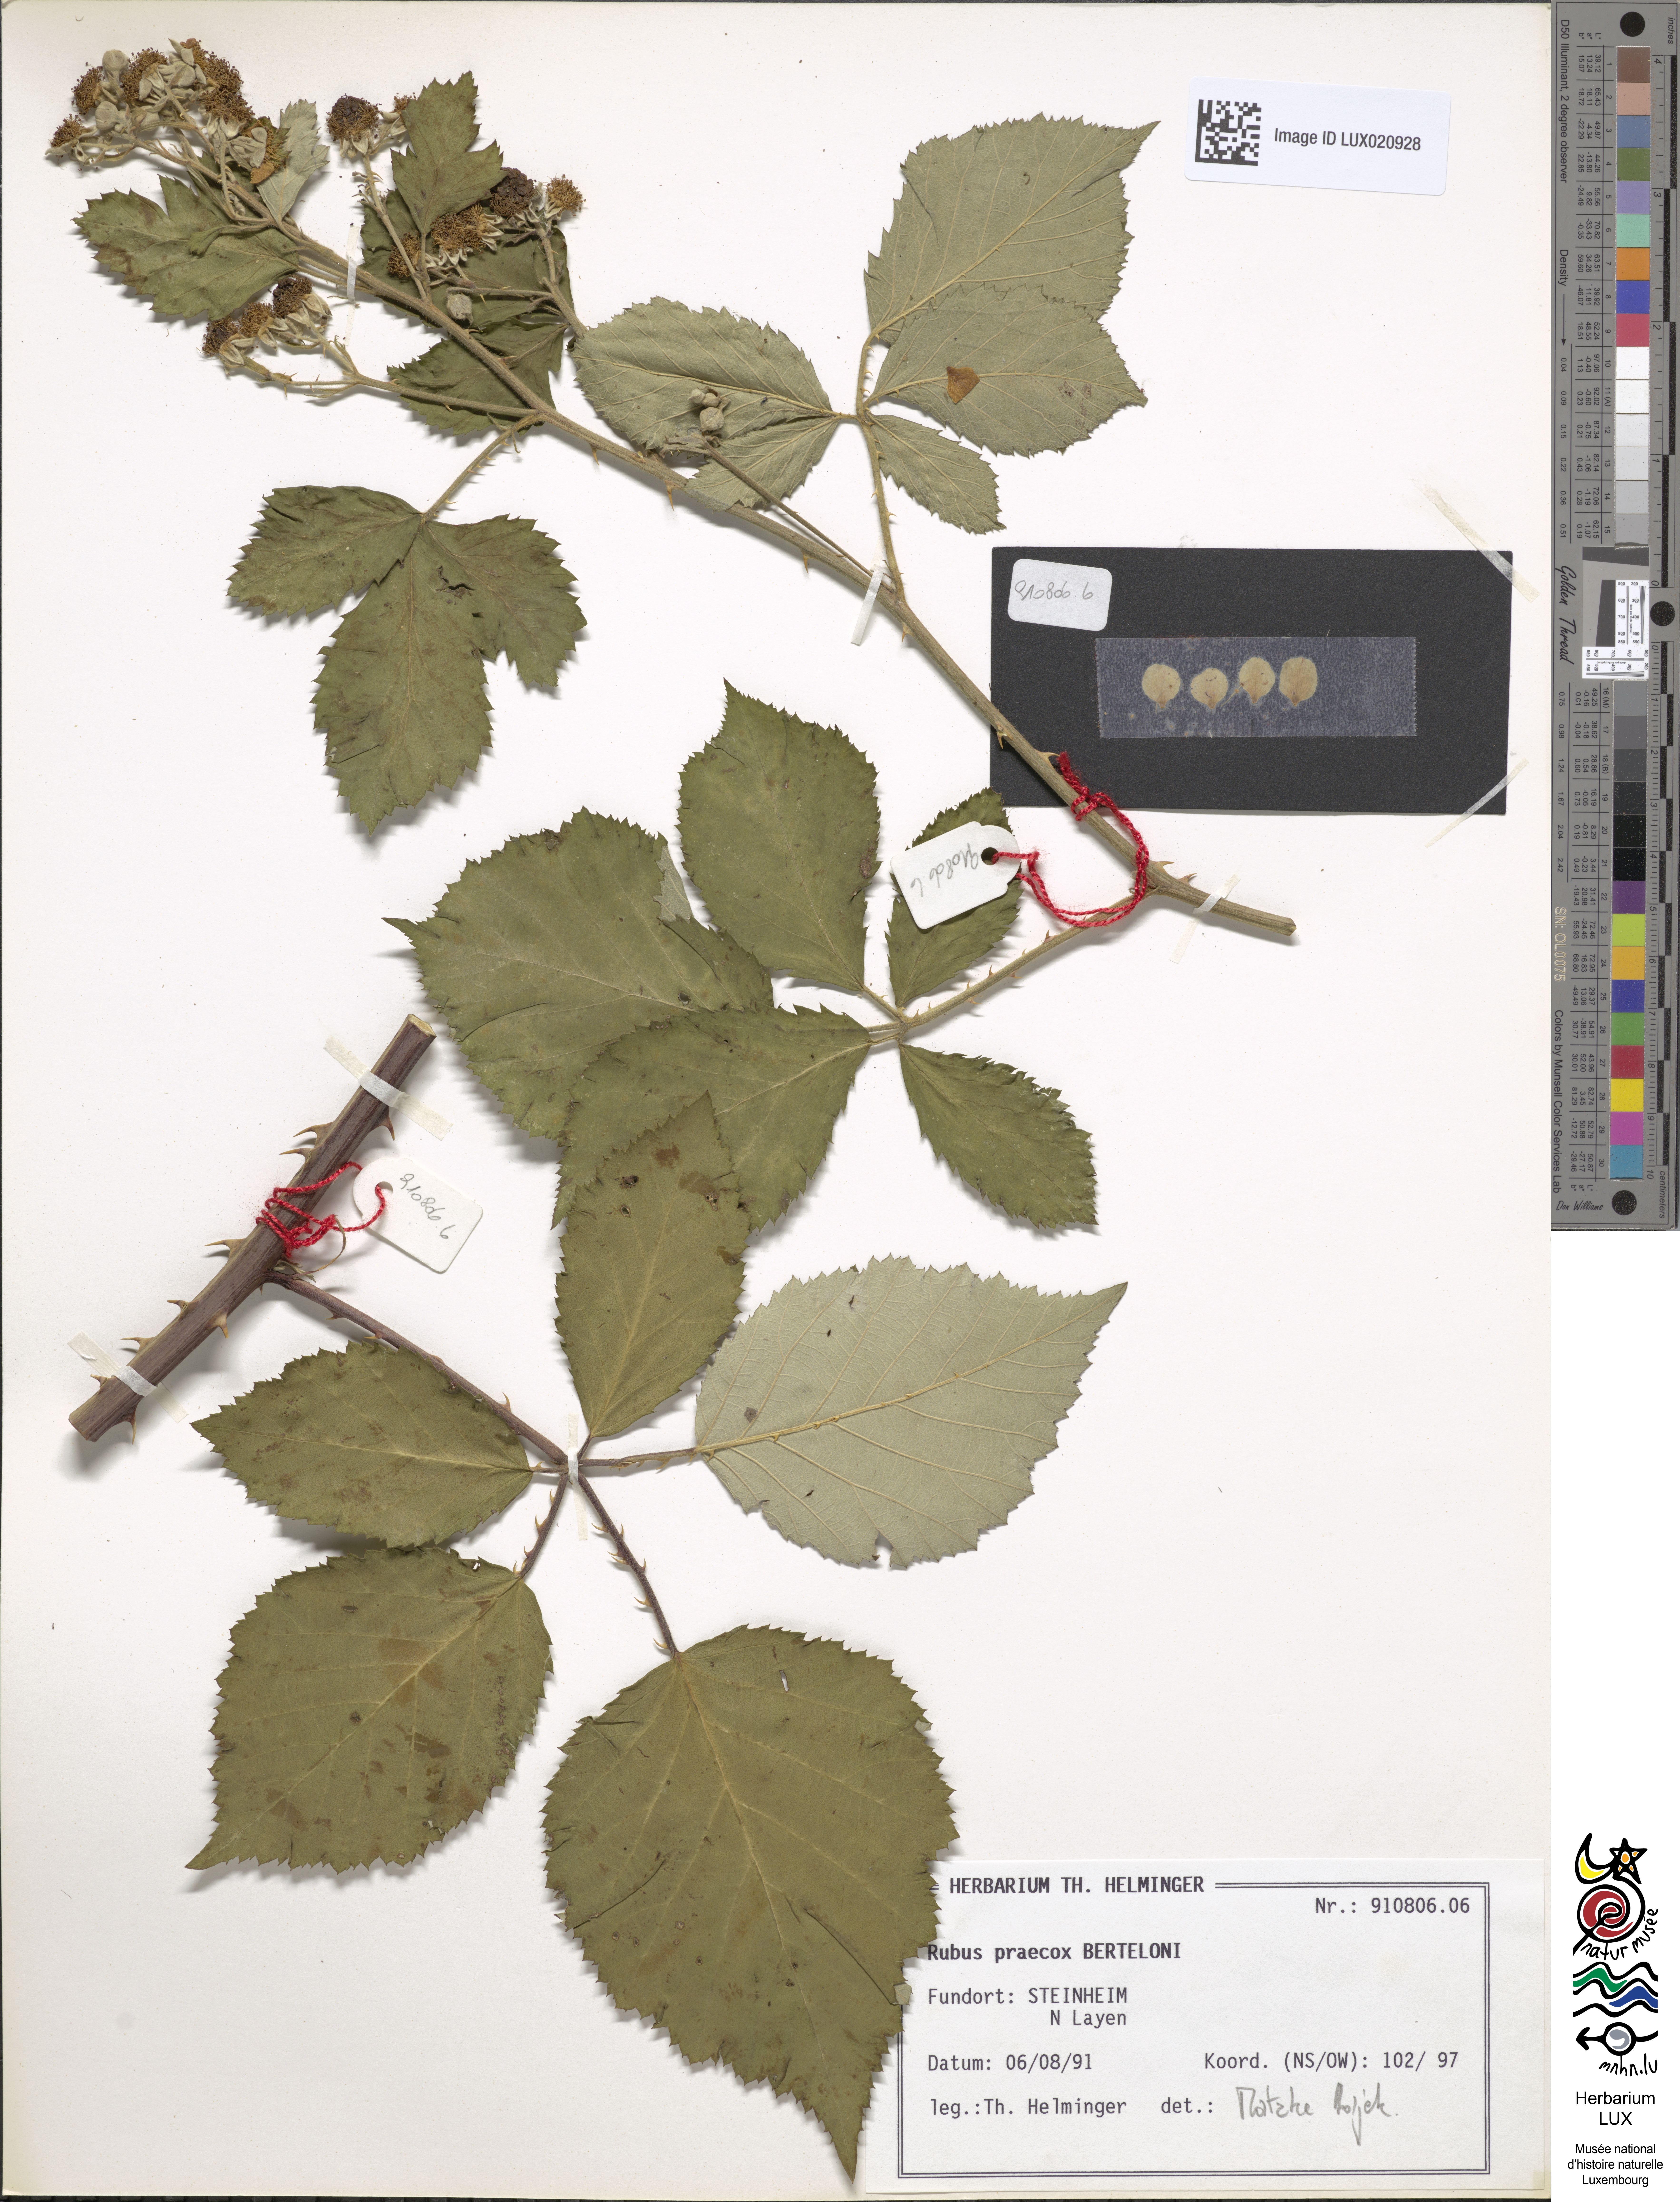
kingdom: Plantae
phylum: Tracheophyta
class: Magnoliopsida
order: Rosales
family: Rosaceae
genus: Rubus
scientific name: Rubus praecox
